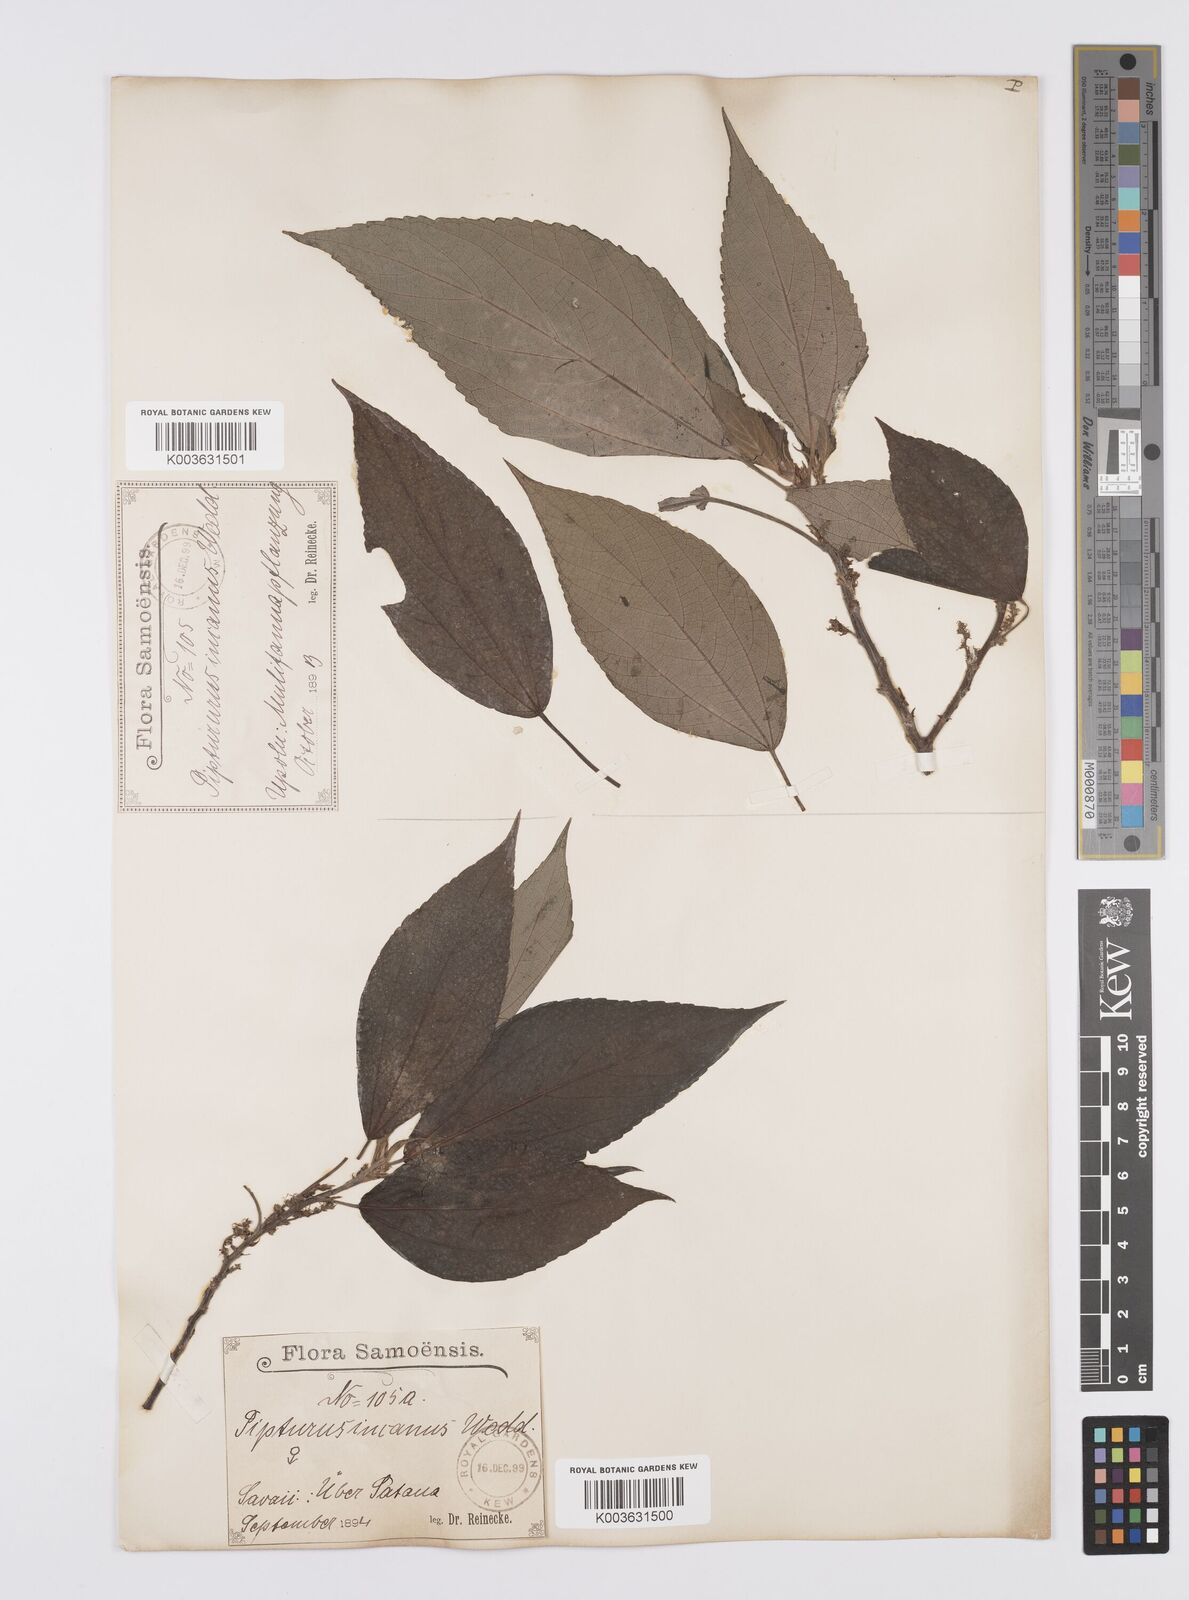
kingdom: Plantae
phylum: Tracheophyta
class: Magnoliopsida
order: Rosales
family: Urticaceae
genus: Pipturus
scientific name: Pipturus argenteus
